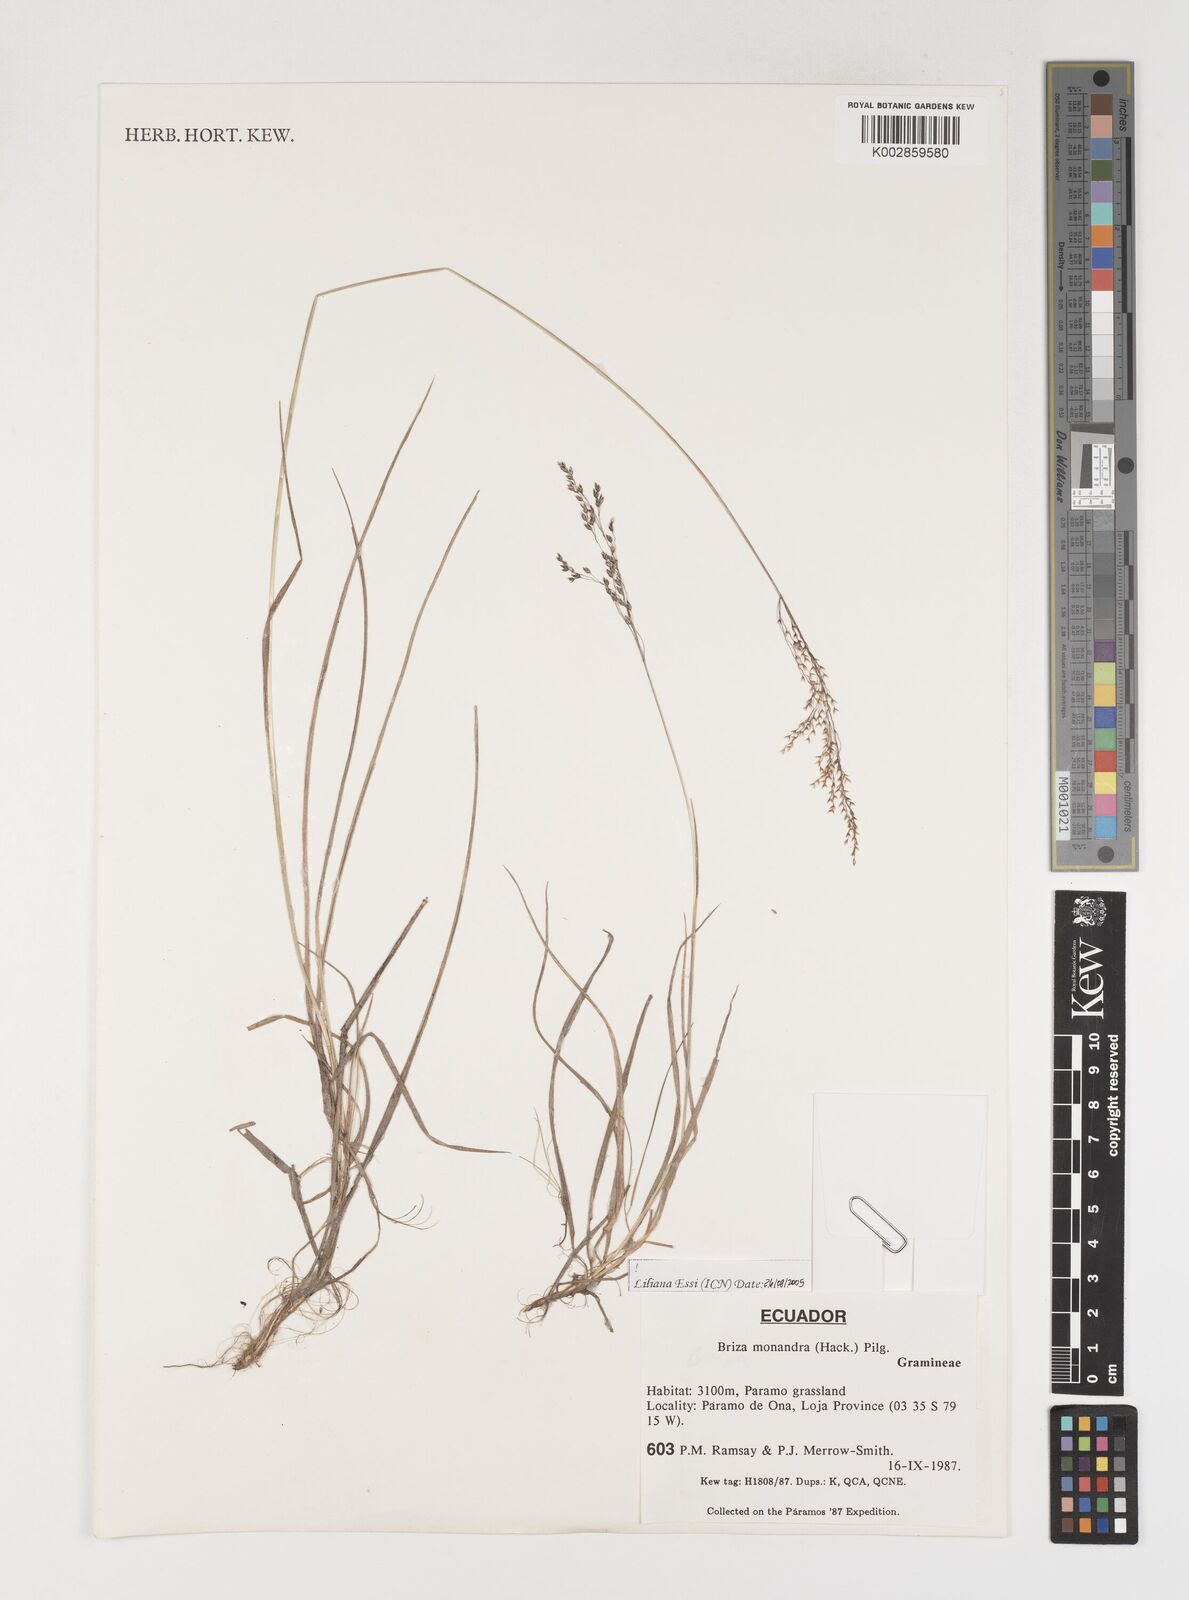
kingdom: Plantae
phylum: Tracheophyta
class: Liliopsida
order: Poales
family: Poaceae
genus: Poidium
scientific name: Poidium monandrum
